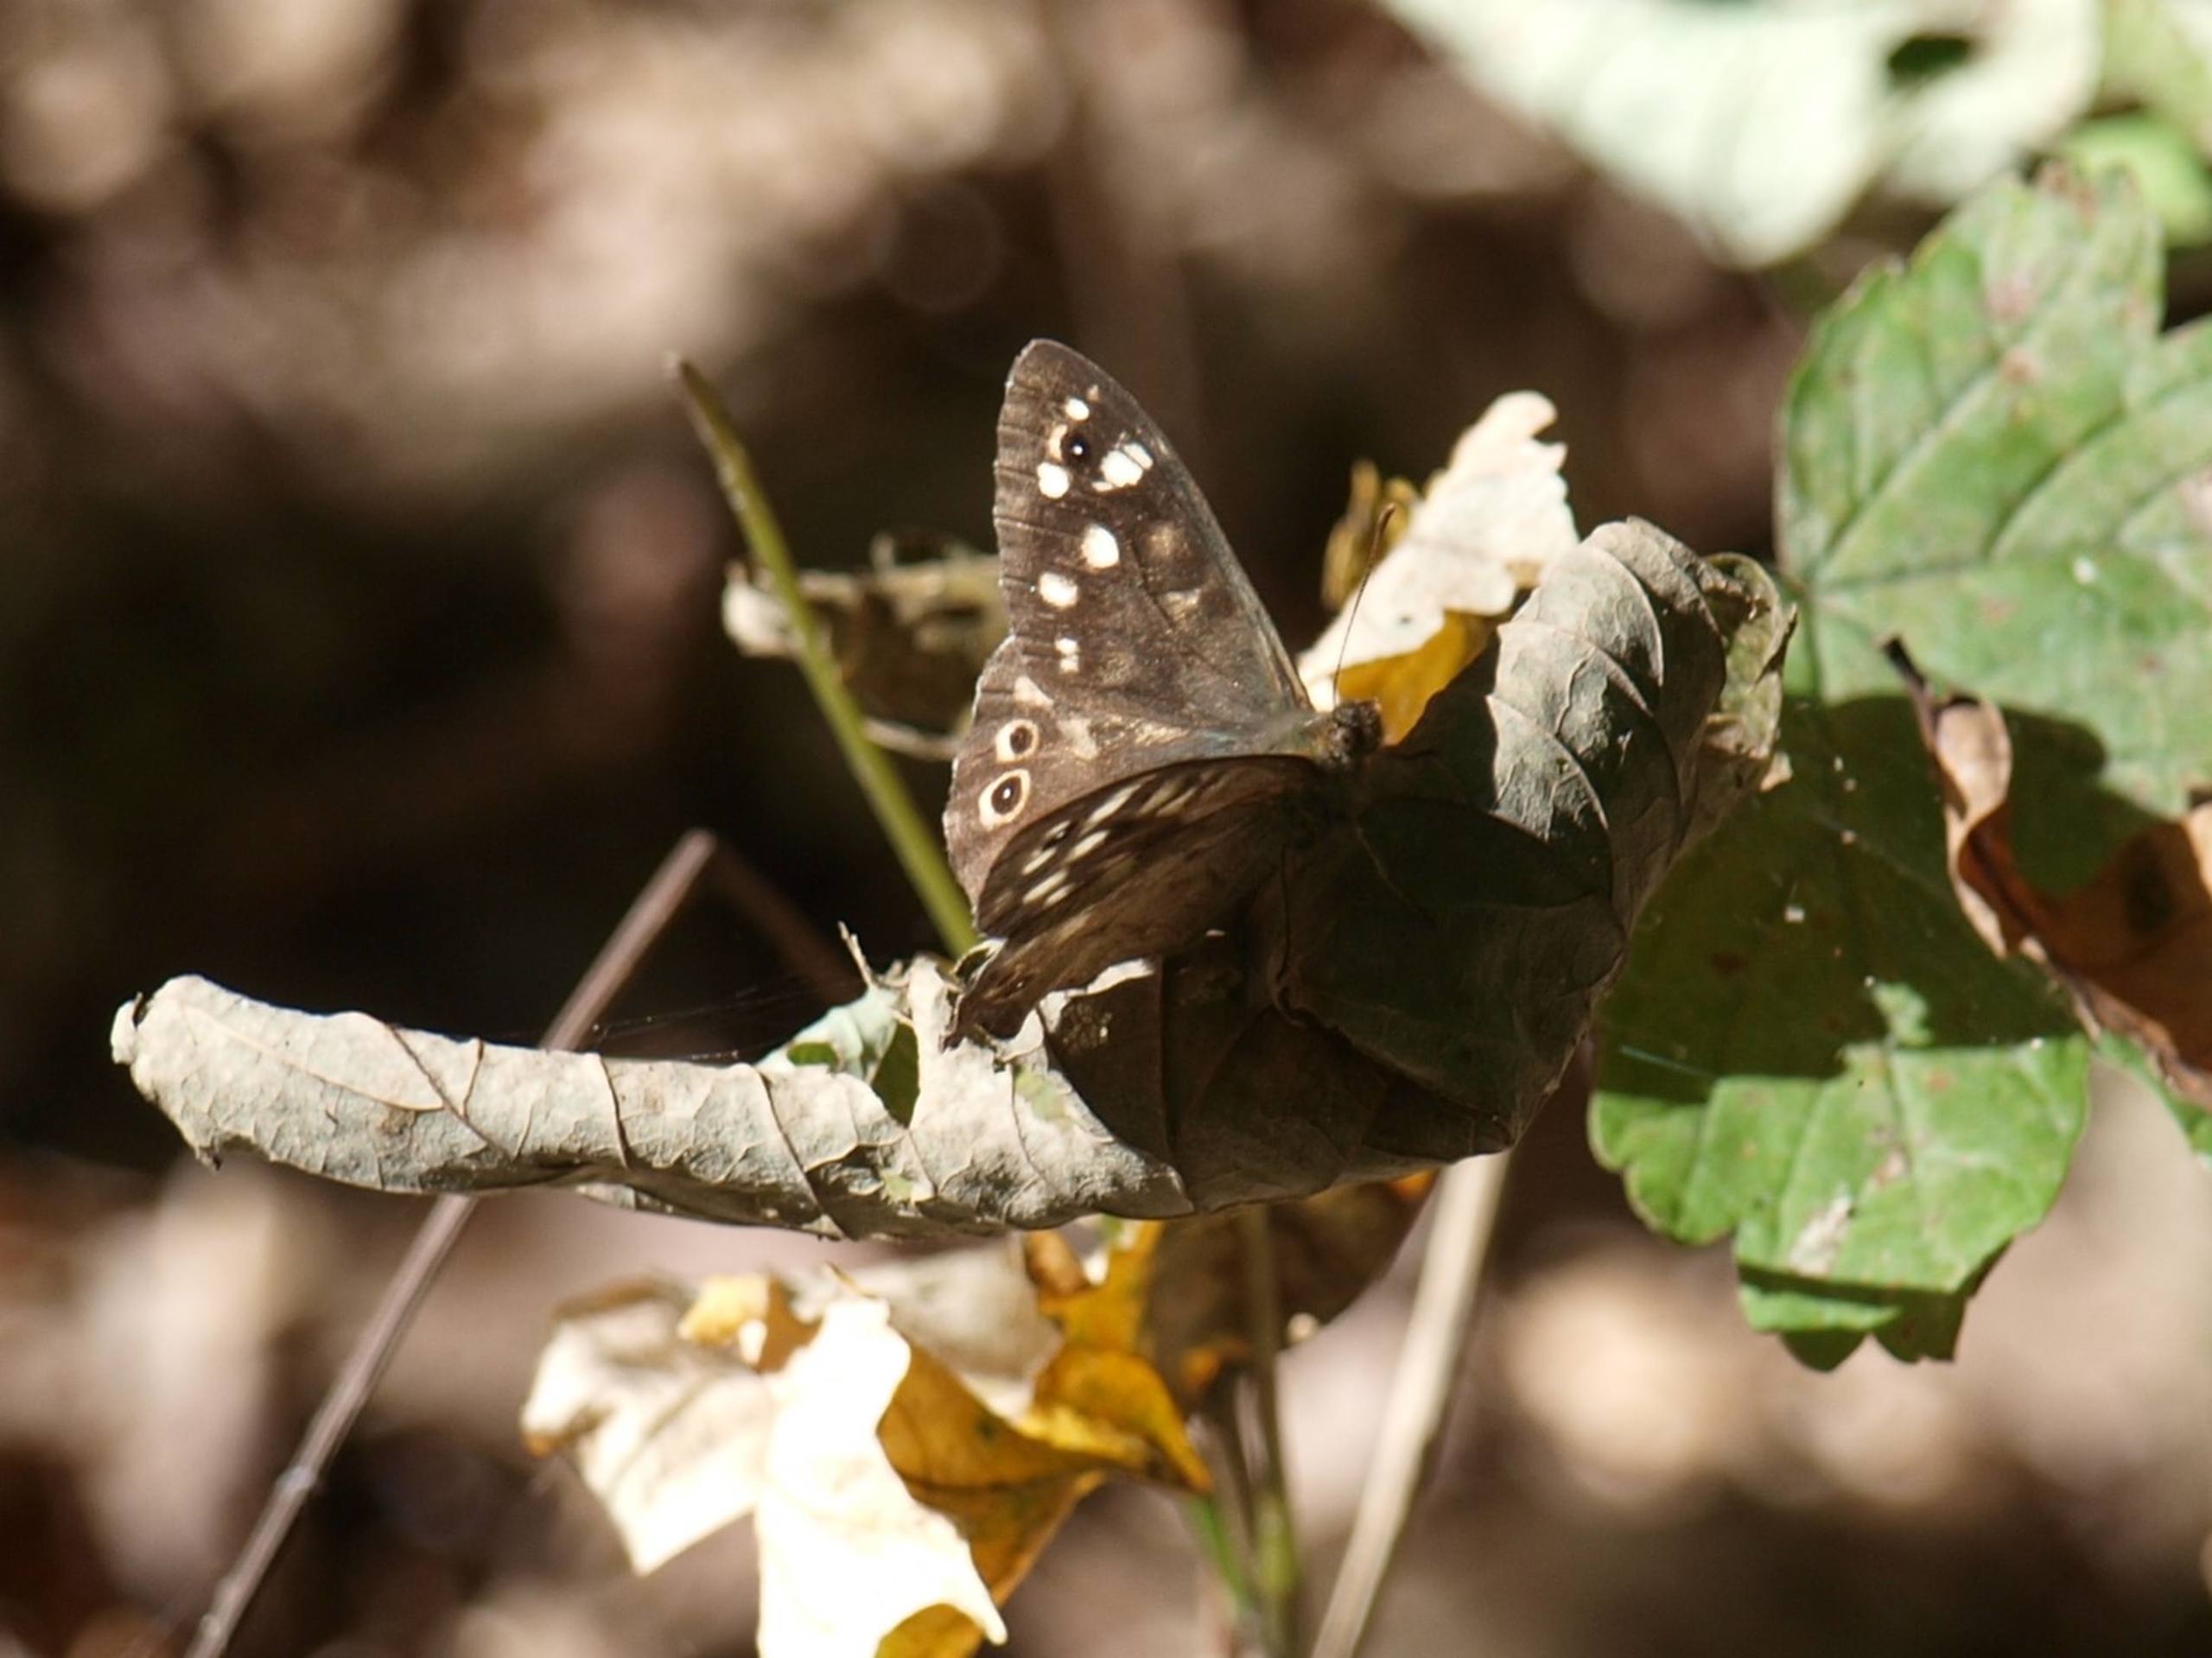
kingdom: Animalia
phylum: Arthropoda
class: Insecta
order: Lepidoptera
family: Nymphalidae
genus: Pararge
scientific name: Pararge aegeria
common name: Skovrandøje
